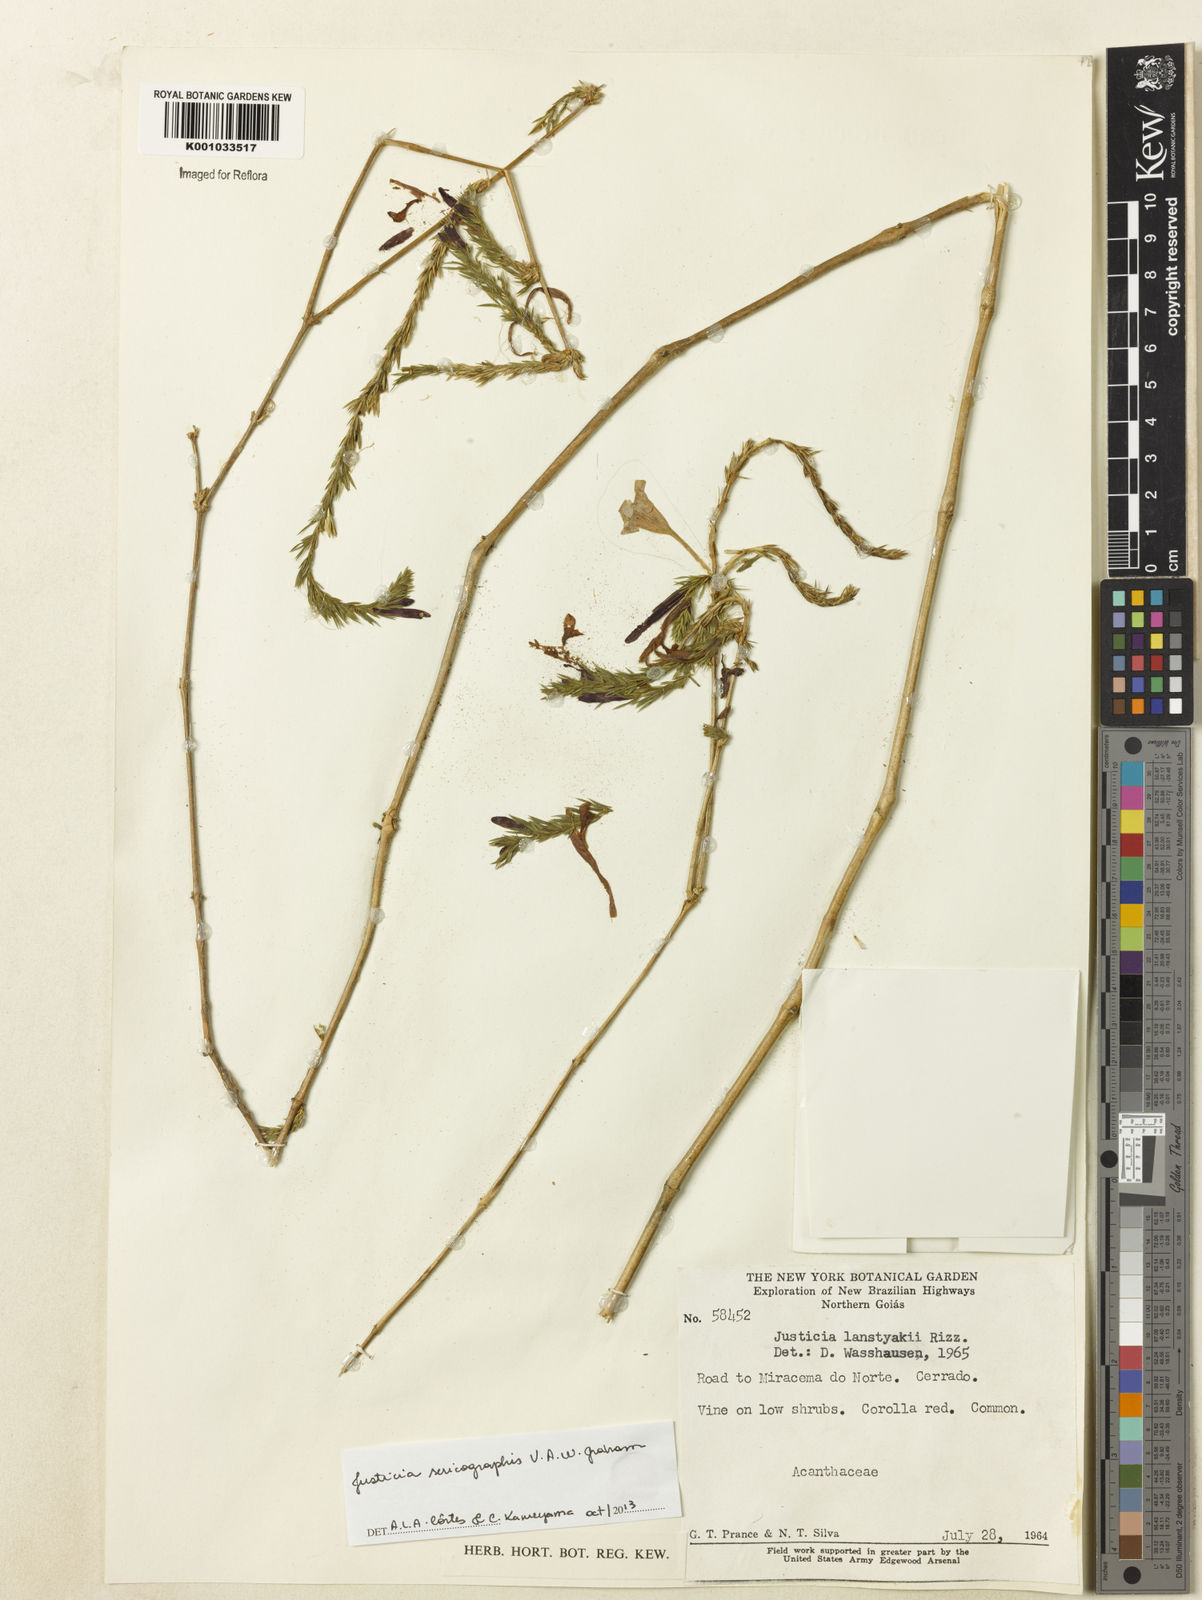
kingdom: Plantae
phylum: Tracheophyta
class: Magnoliopsida
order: Lamiales
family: Acanthaceae
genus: Dianthera
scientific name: Dianthera rigida
